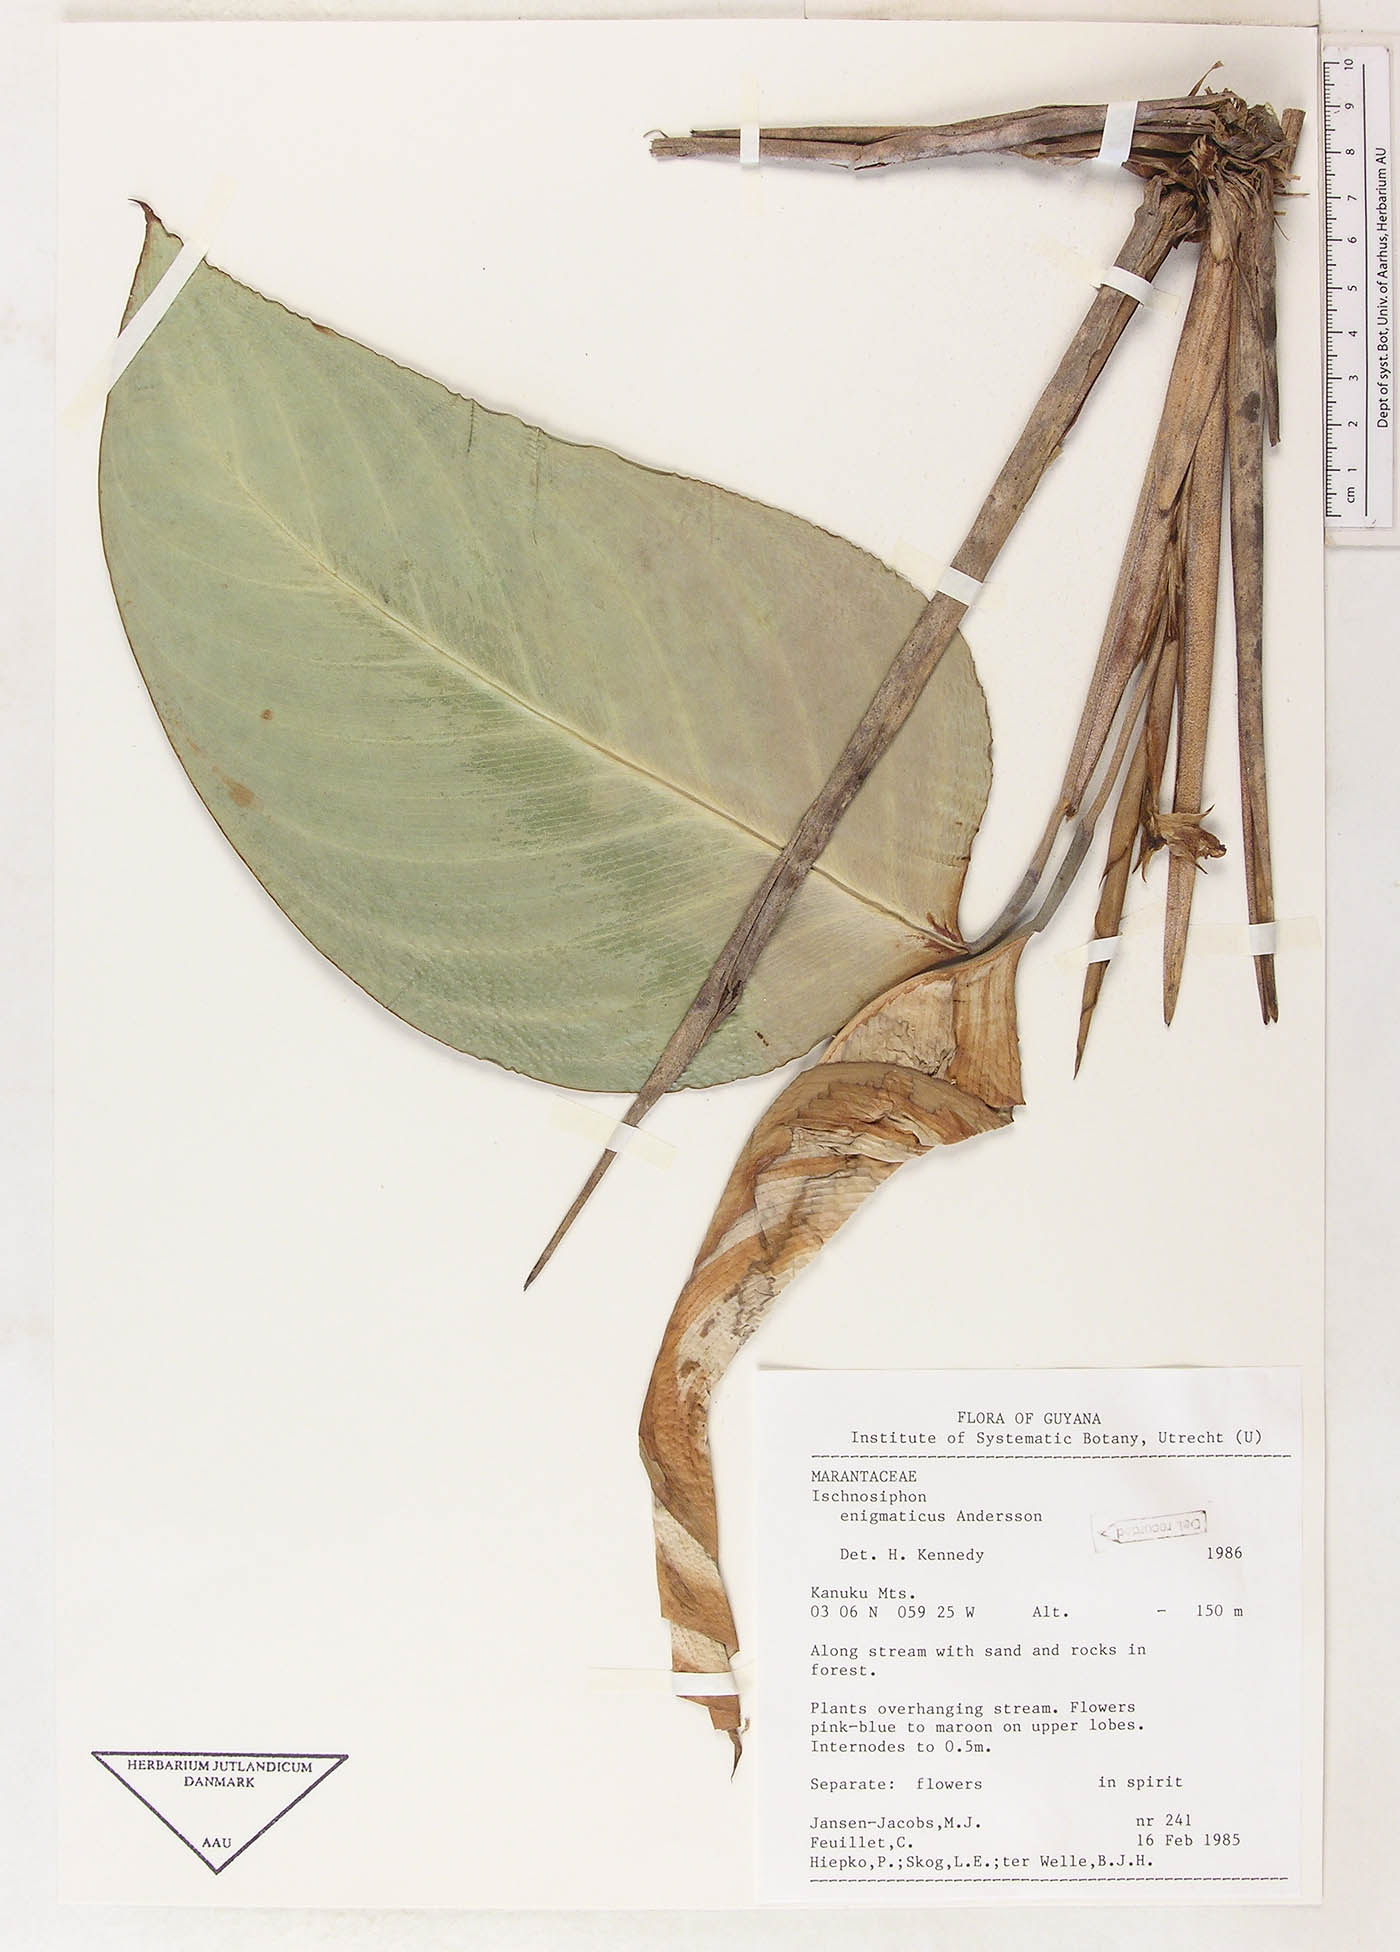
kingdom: Plantae
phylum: Tracheophyta
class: Liliopsida
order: Zingiberales
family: Marantaceae
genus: Ischnosiphon
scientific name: Ischnosiphon enigmaticus
